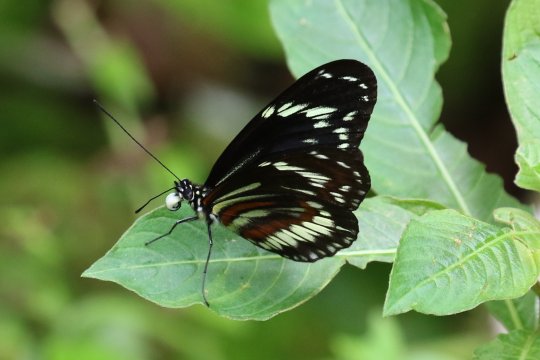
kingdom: Animalia
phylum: Arthropoda
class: Insecta
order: Lepidoptera
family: Nymphalidae
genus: Heliconius
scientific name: Heliconius hecuba
